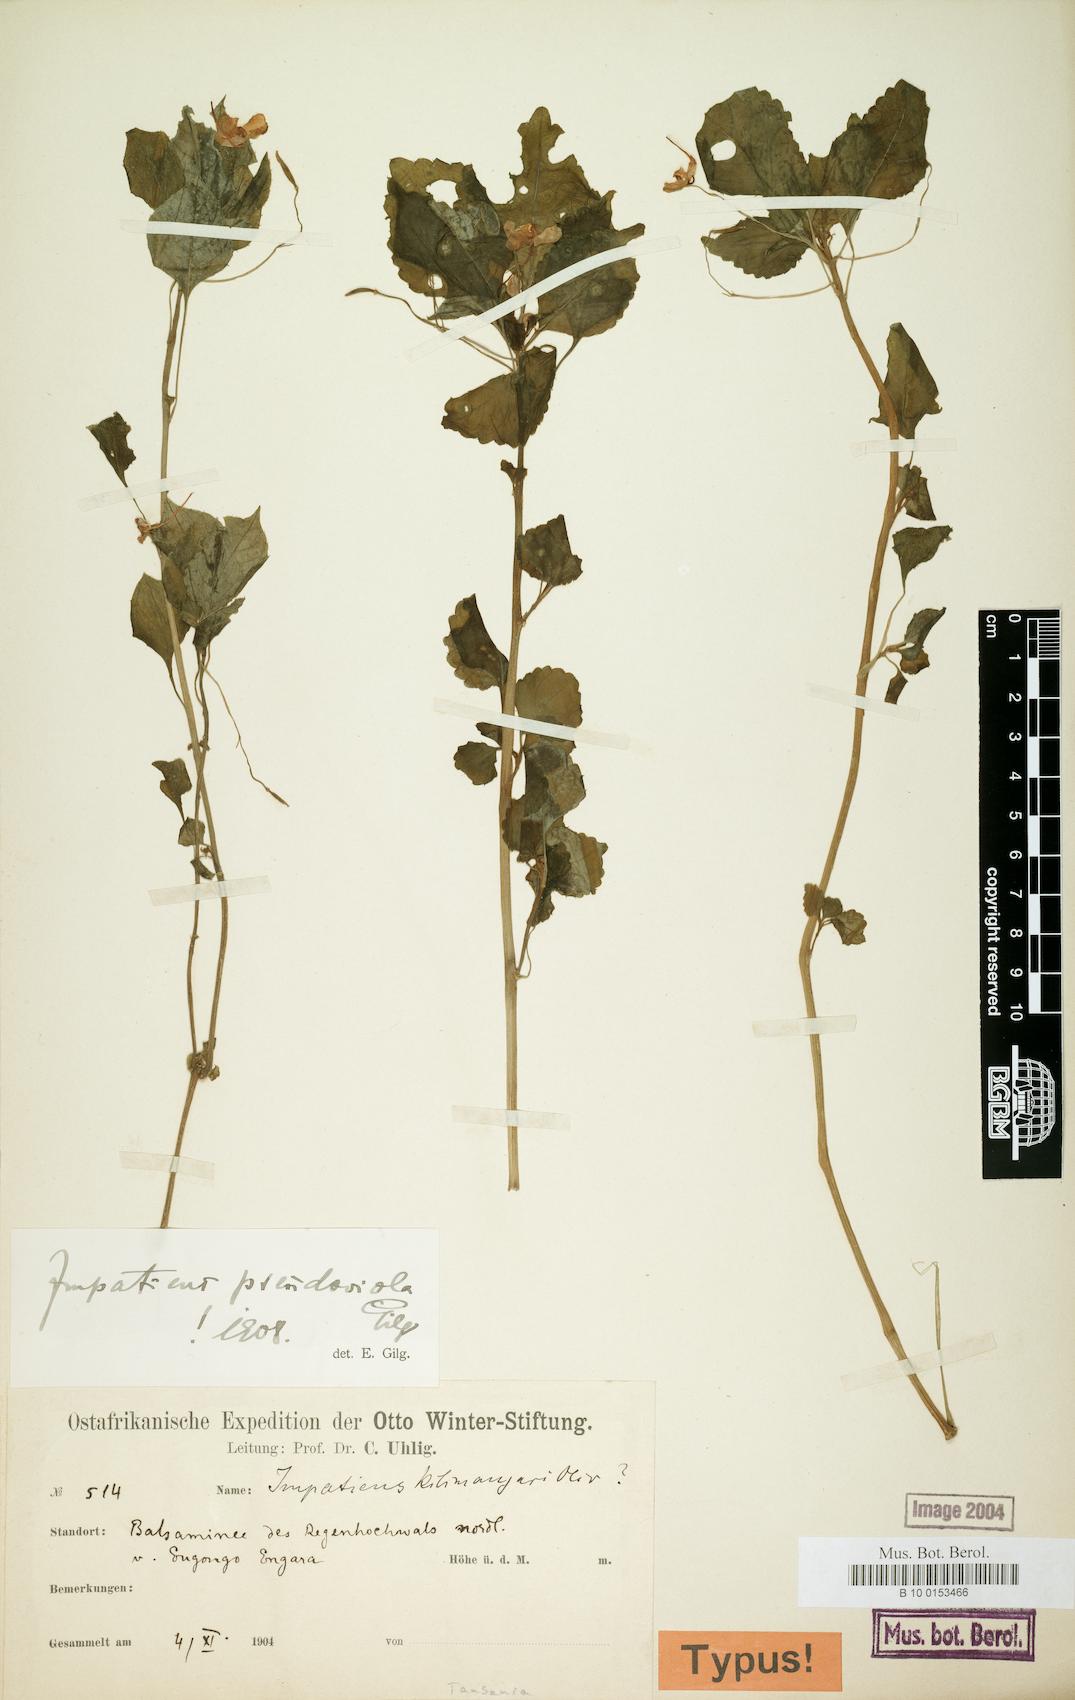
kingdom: Plantae
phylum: Tracheophyta
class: Magnoliopsida
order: Ericales
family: Balsaminaceae
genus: Impatiens
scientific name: Impatiens pseudoviola
